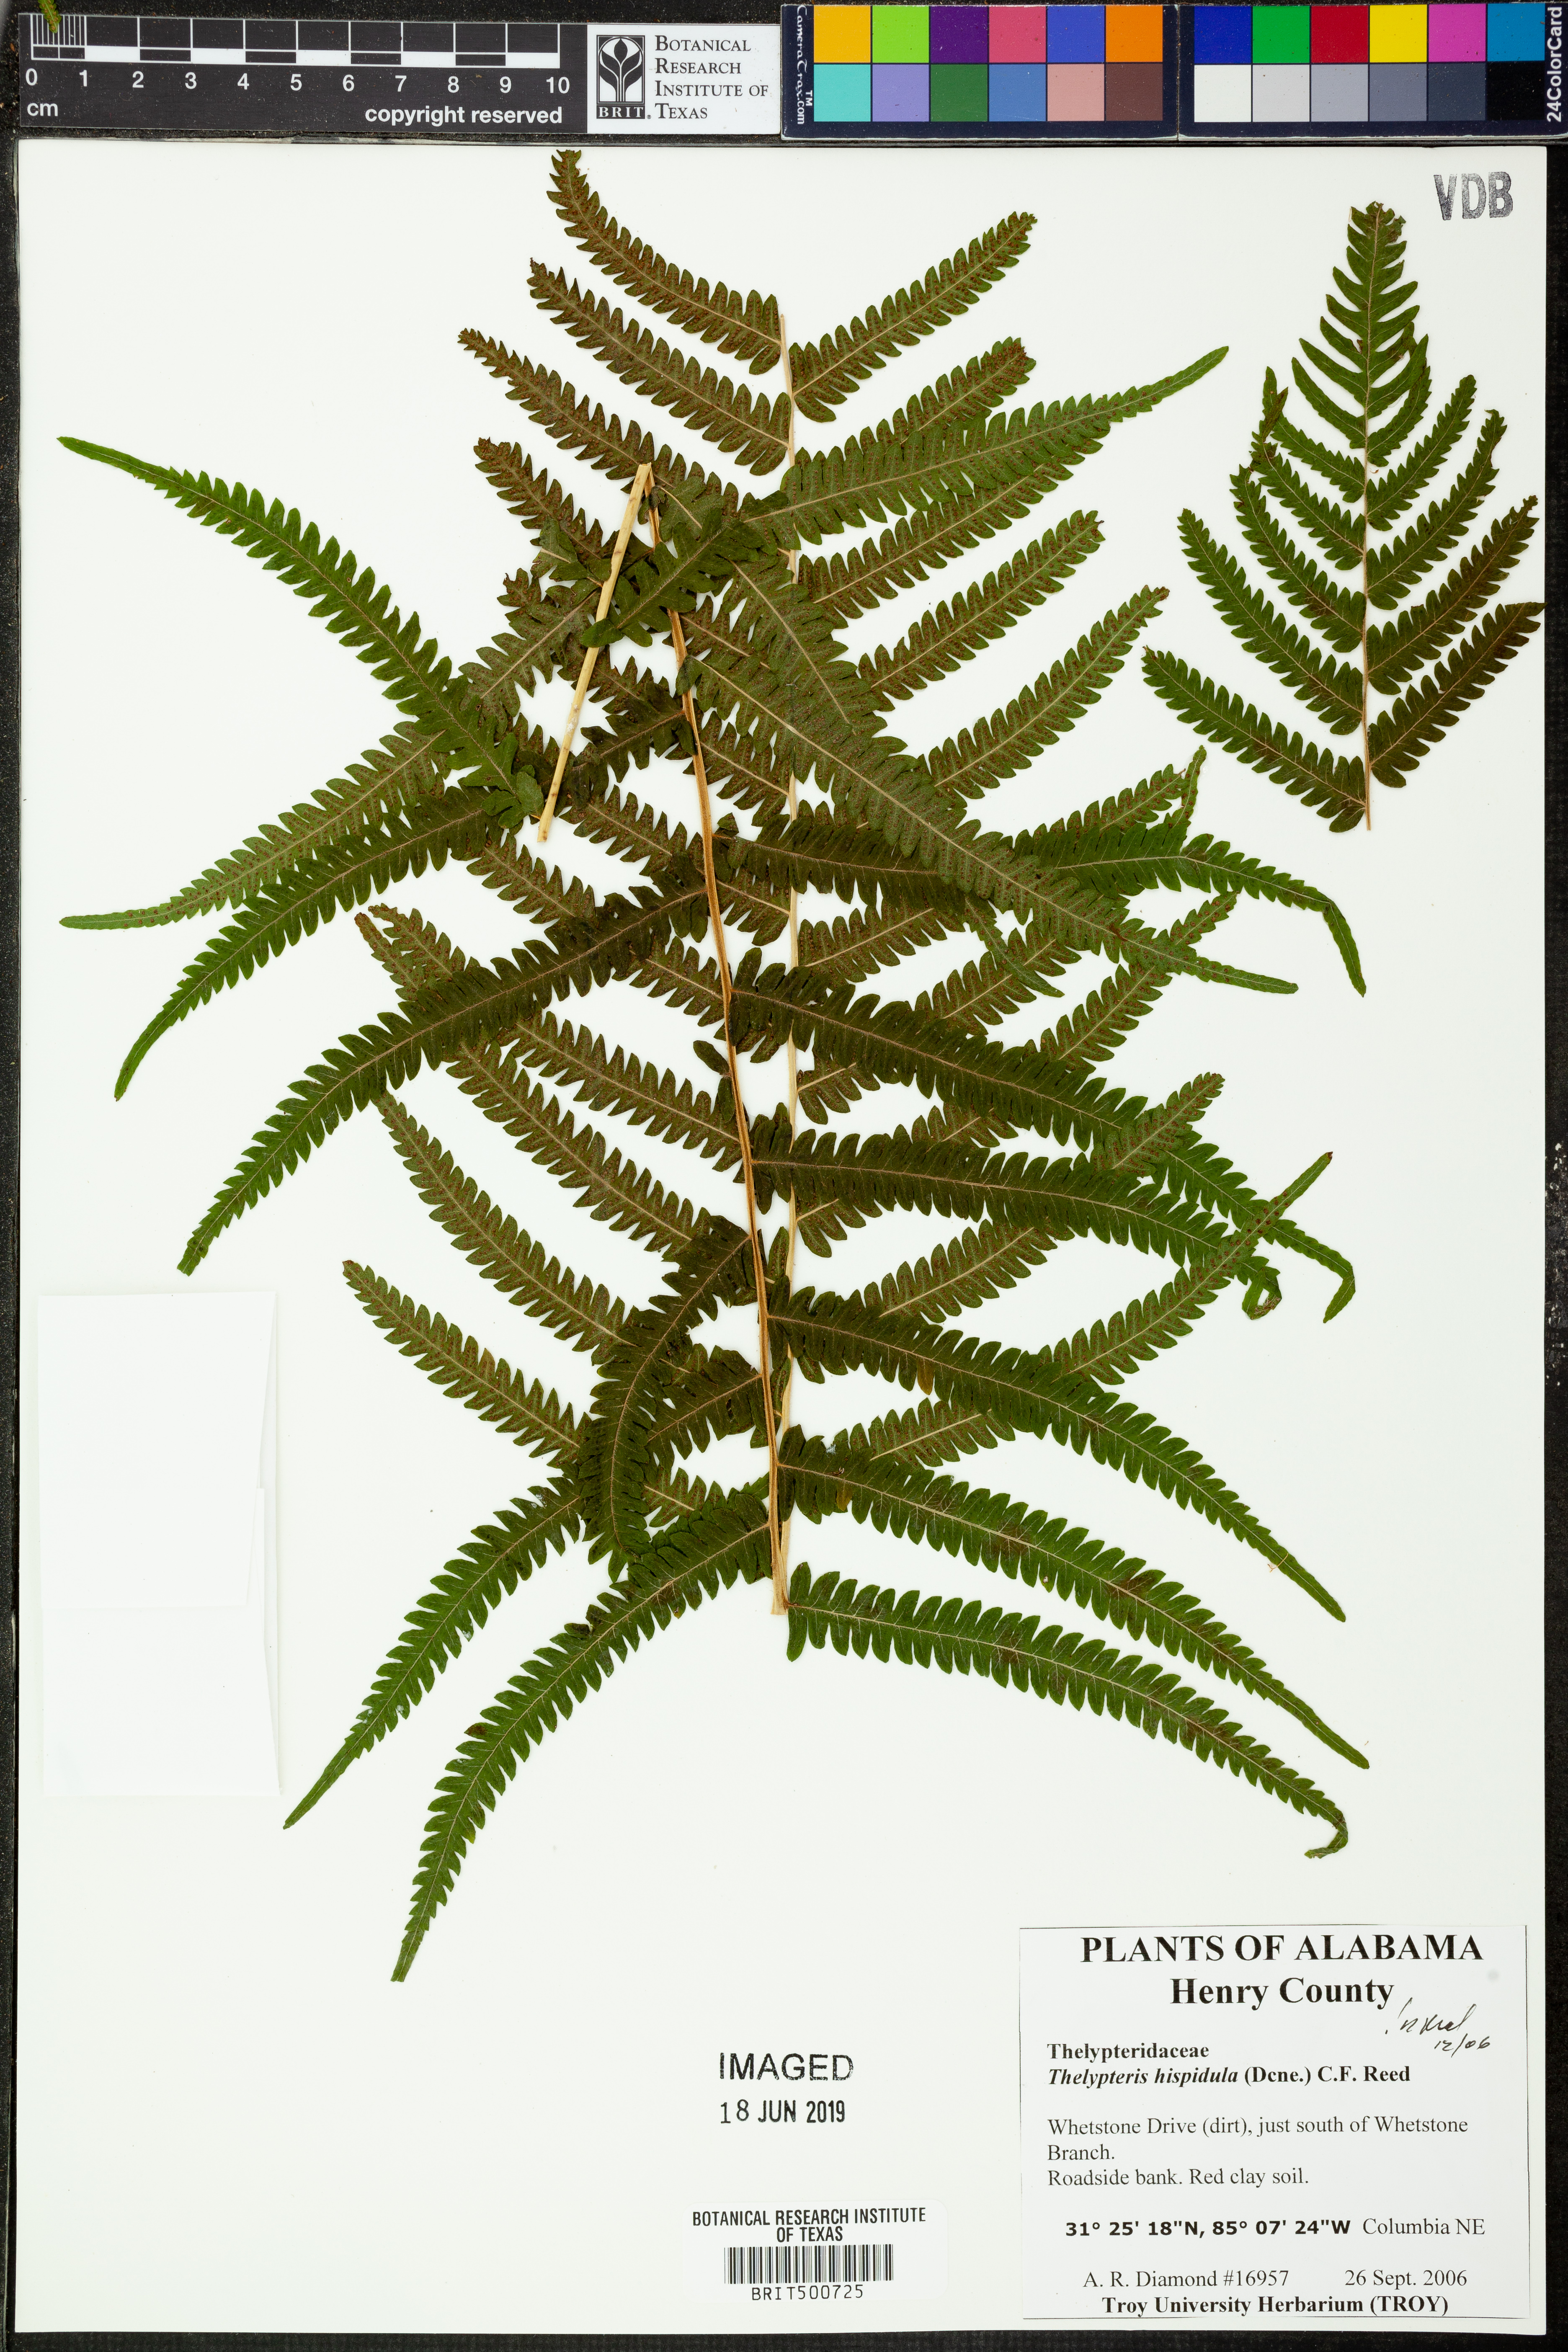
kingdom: Plantae
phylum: Tracheophyta
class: Polypodiopsida
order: Polypodiales
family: Thelypteridaceae
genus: Christella
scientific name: Christella hispidula
